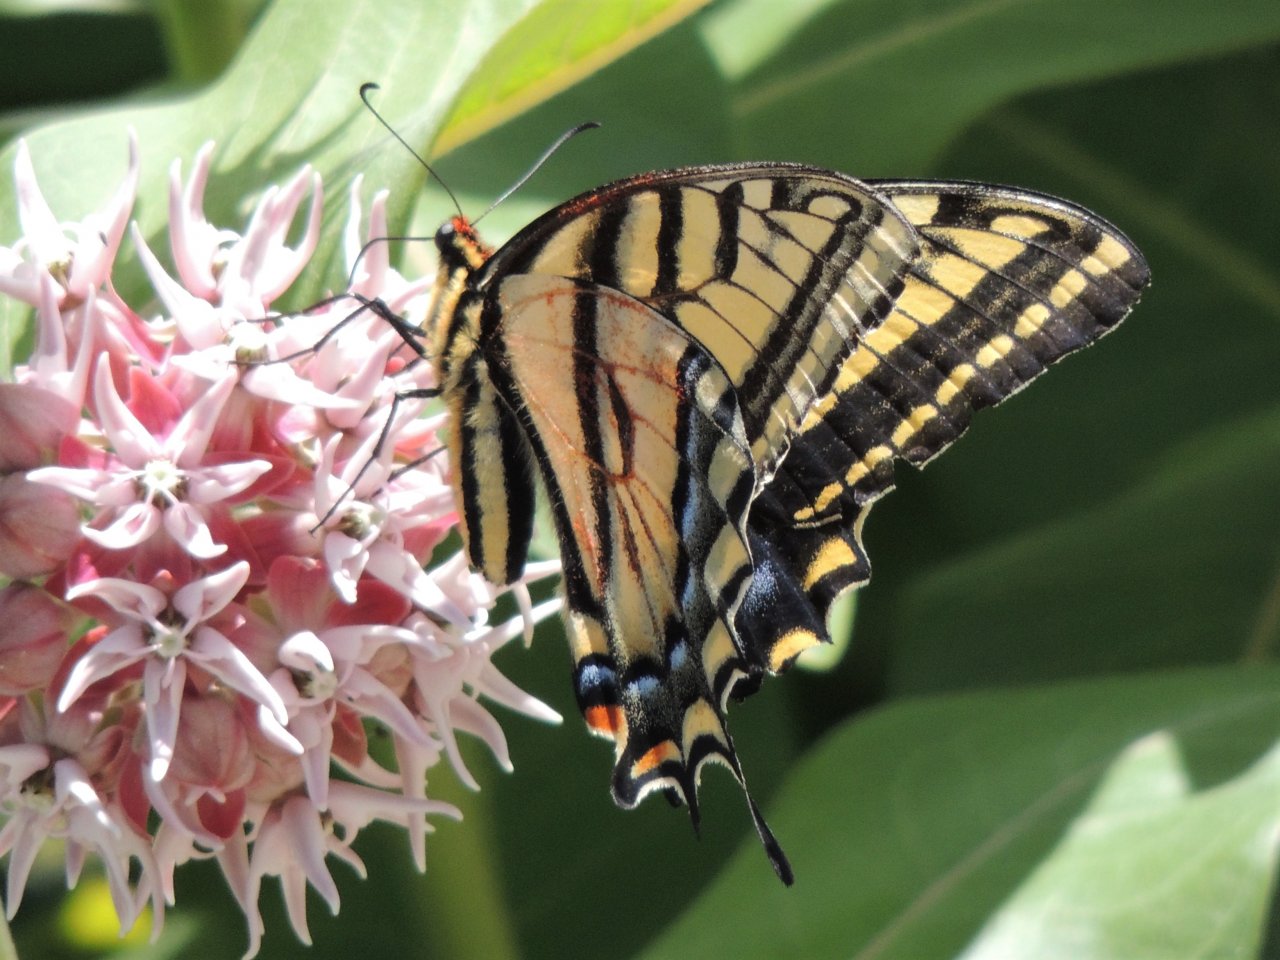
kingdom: Animalia
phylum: Arthropoda
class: Insecta
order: Lepidoptera
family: Papilionidae
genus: Papilio
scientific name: Papilio multicaudata
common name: Two-tailed Swallowtail
